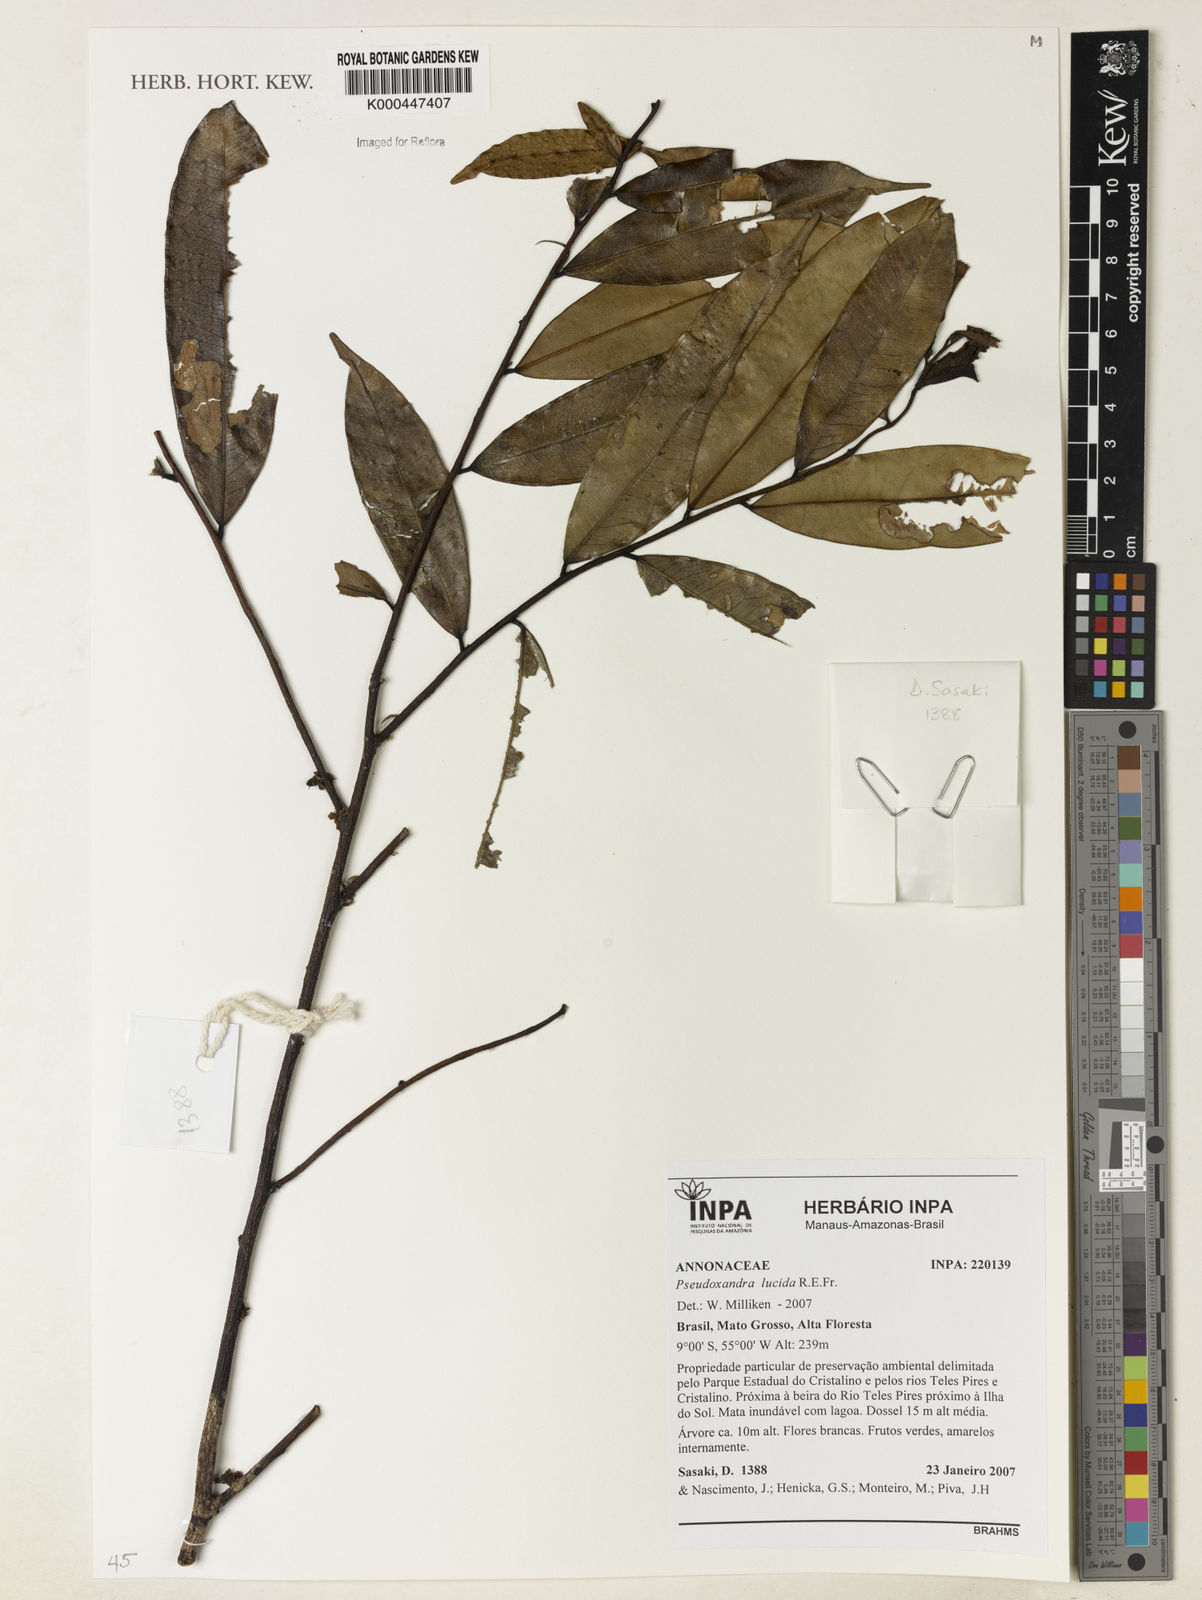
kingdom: Plantae
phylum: Tracheophyta
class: Magnoliopsida
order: Magnoliales
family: Annonaceae
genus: Pseudoxandra
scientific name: Pseudoxandra lucida
